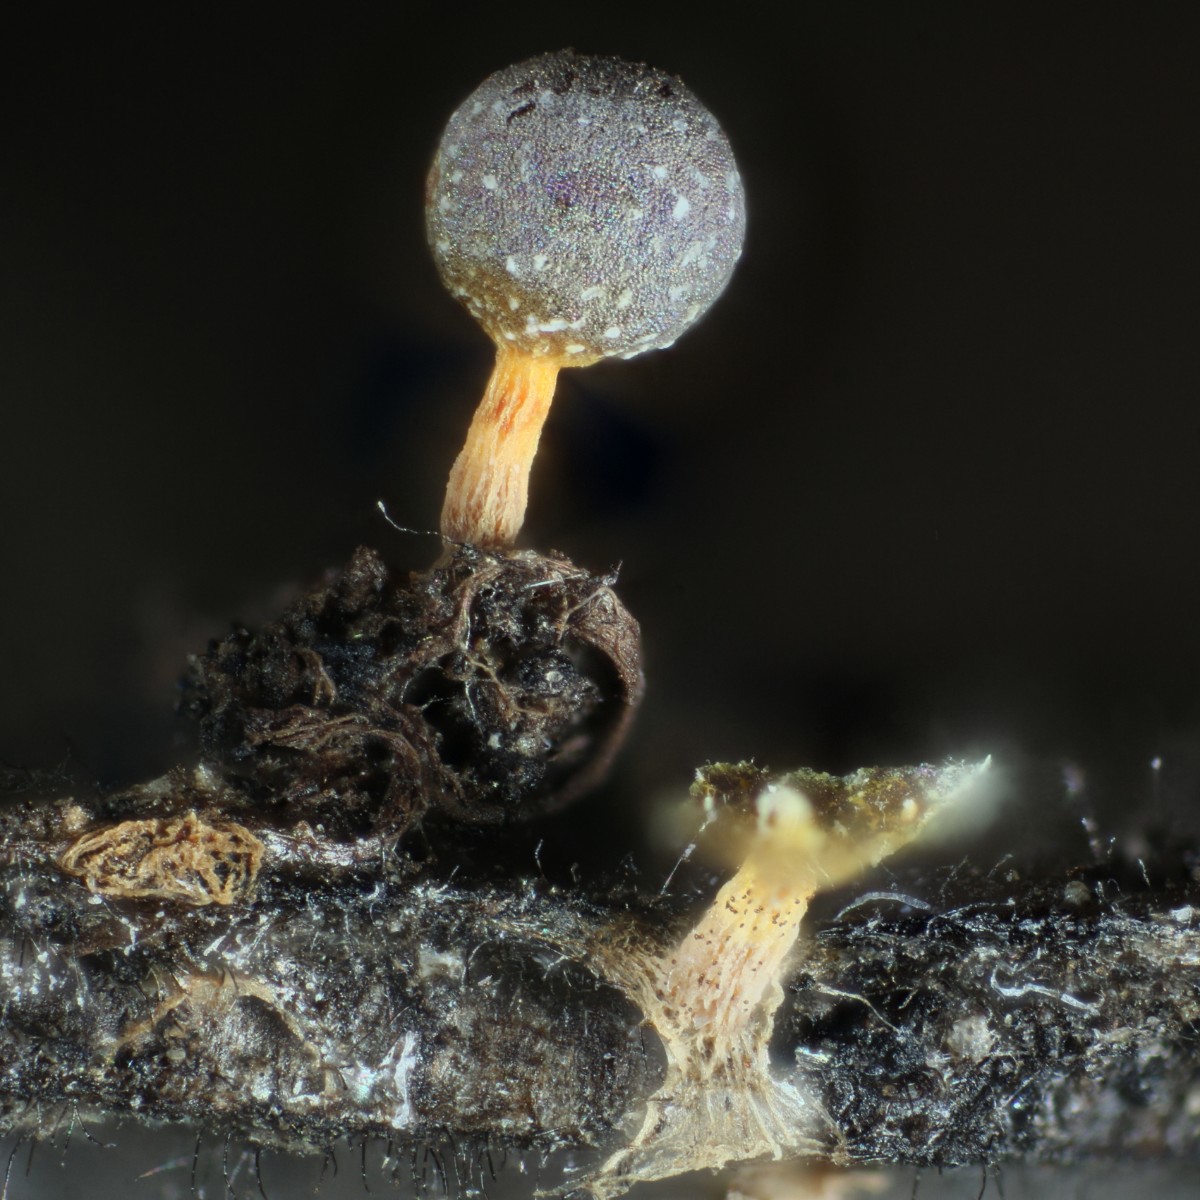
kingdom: Protozoa
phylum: Mycetozoa
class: Myxomycetes
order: Physarales
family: Physaraceae
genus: Physarum
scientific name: Physarum melleum
